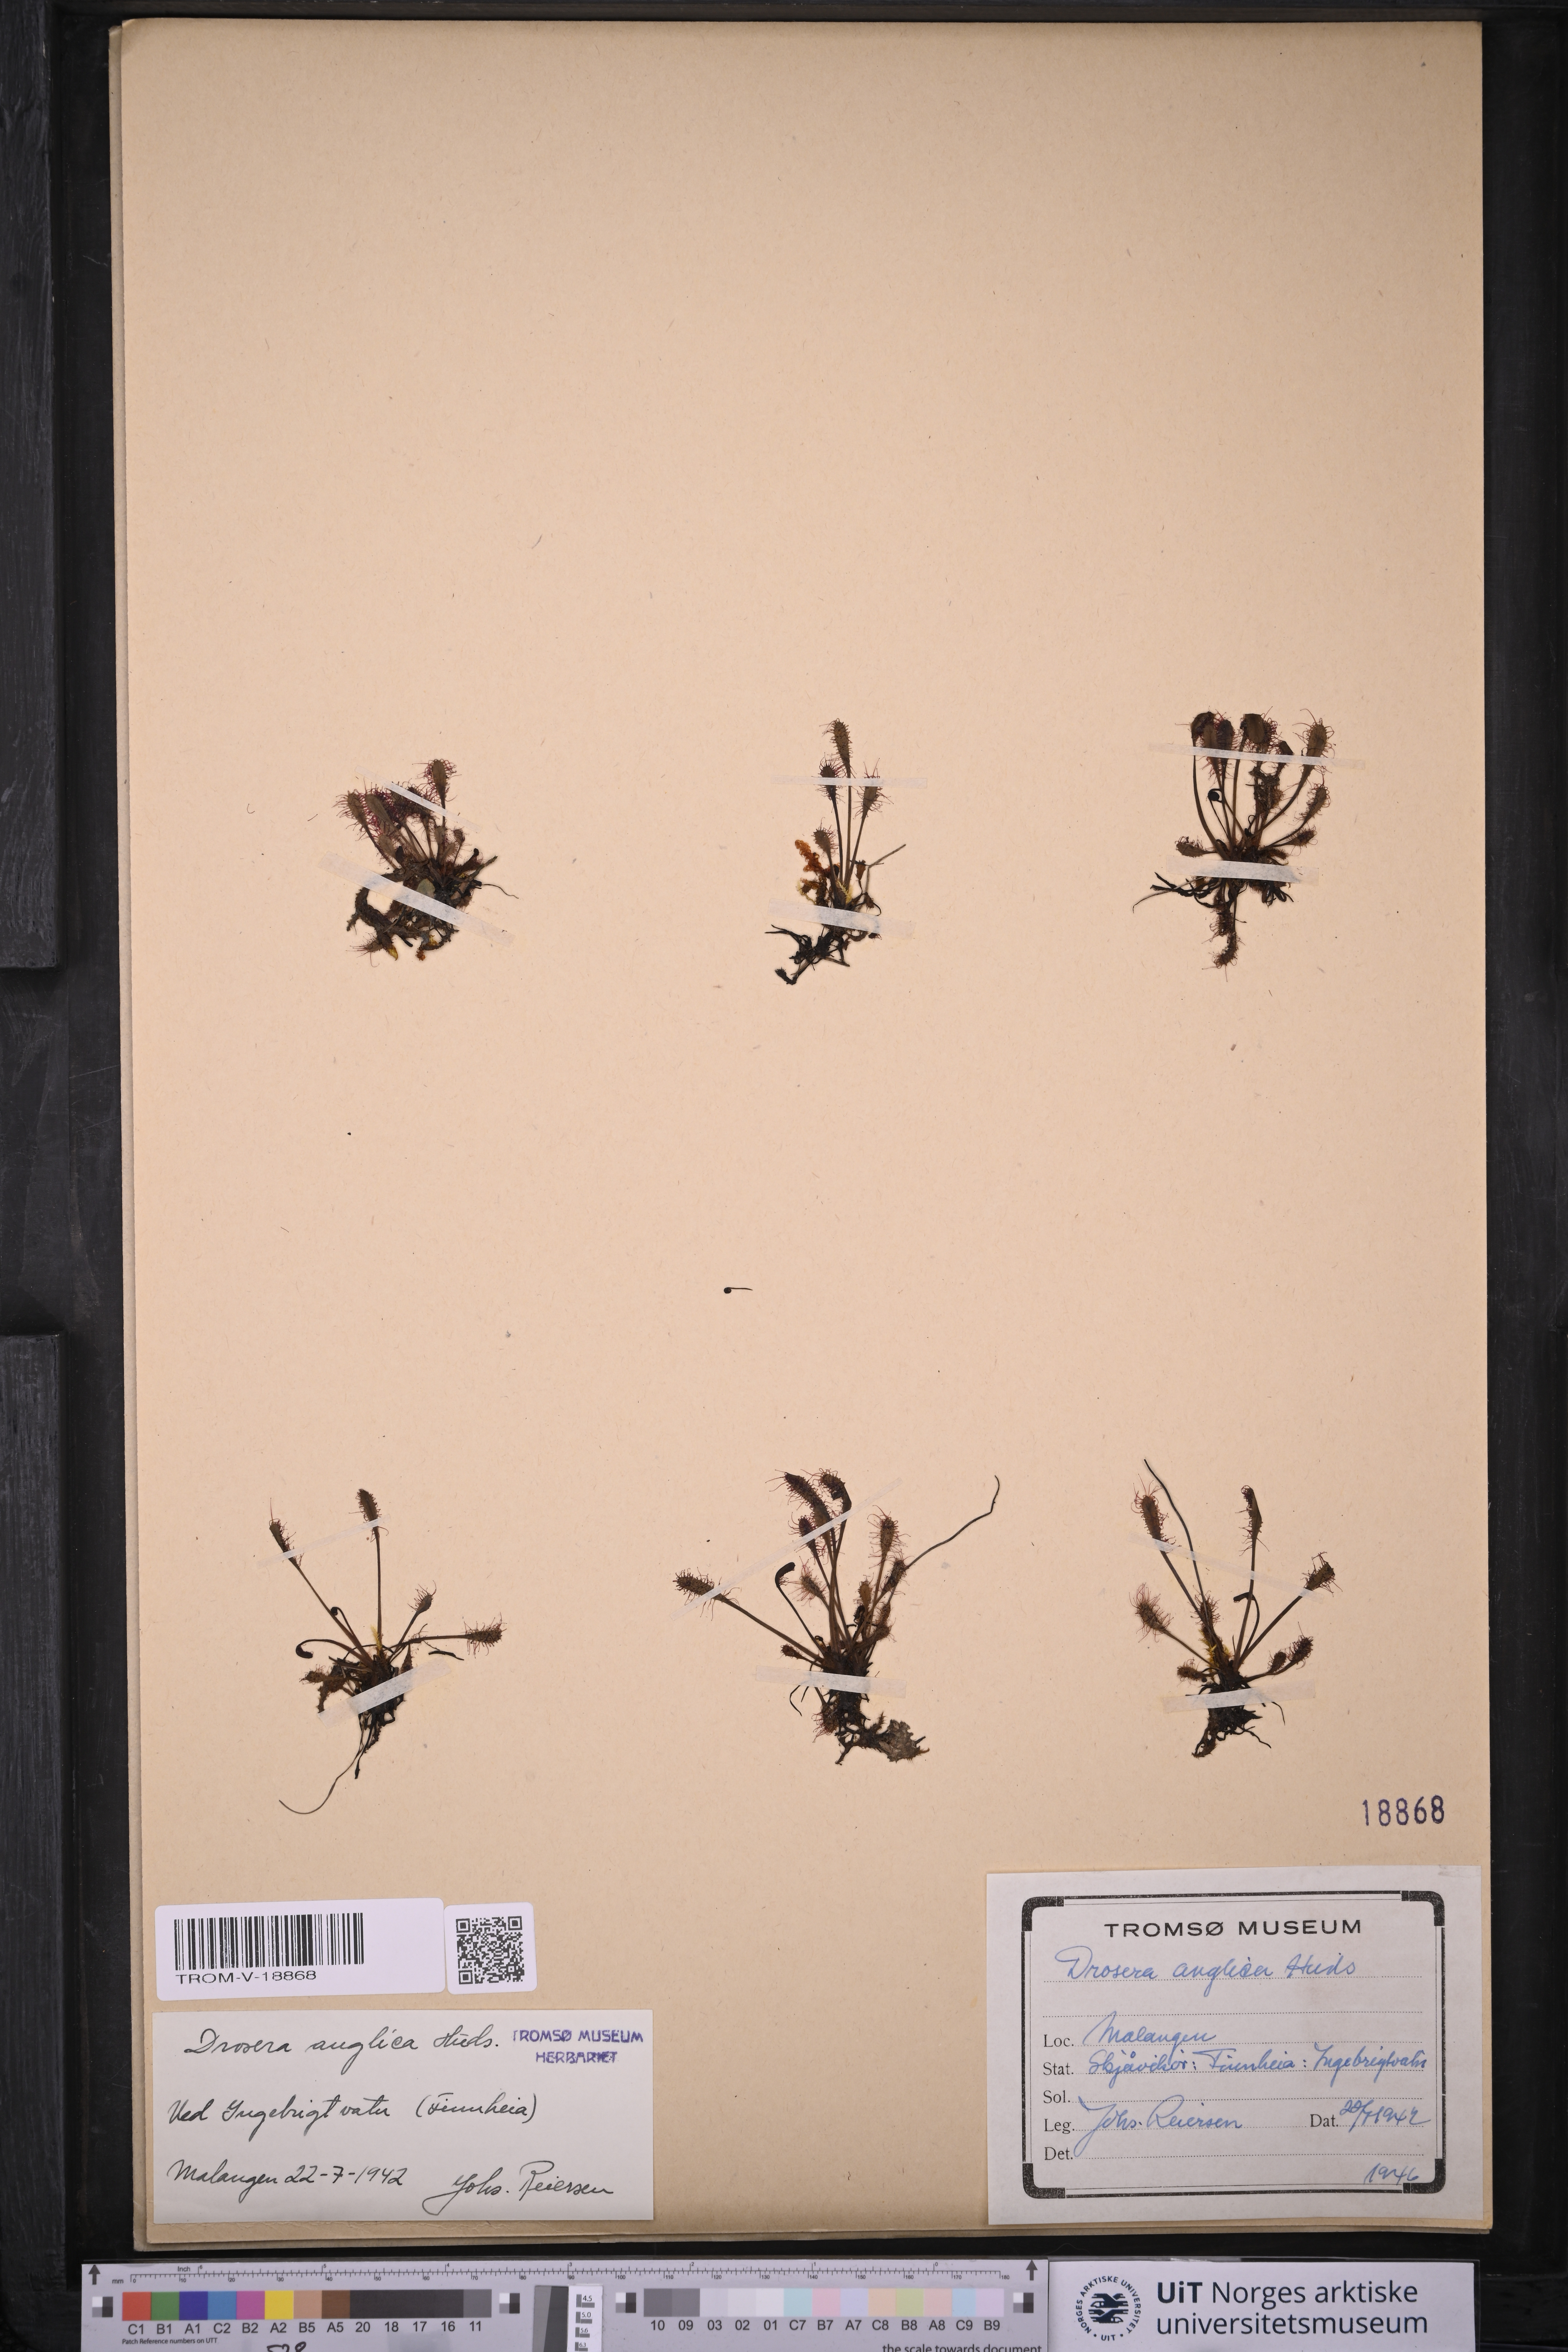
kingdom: Plantae
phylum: Tracheophyta
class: Magnoliopsida
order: Caryophyllales
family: Droseraceae
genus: Drosera
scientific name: Drosera anglica
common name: Great sundew
